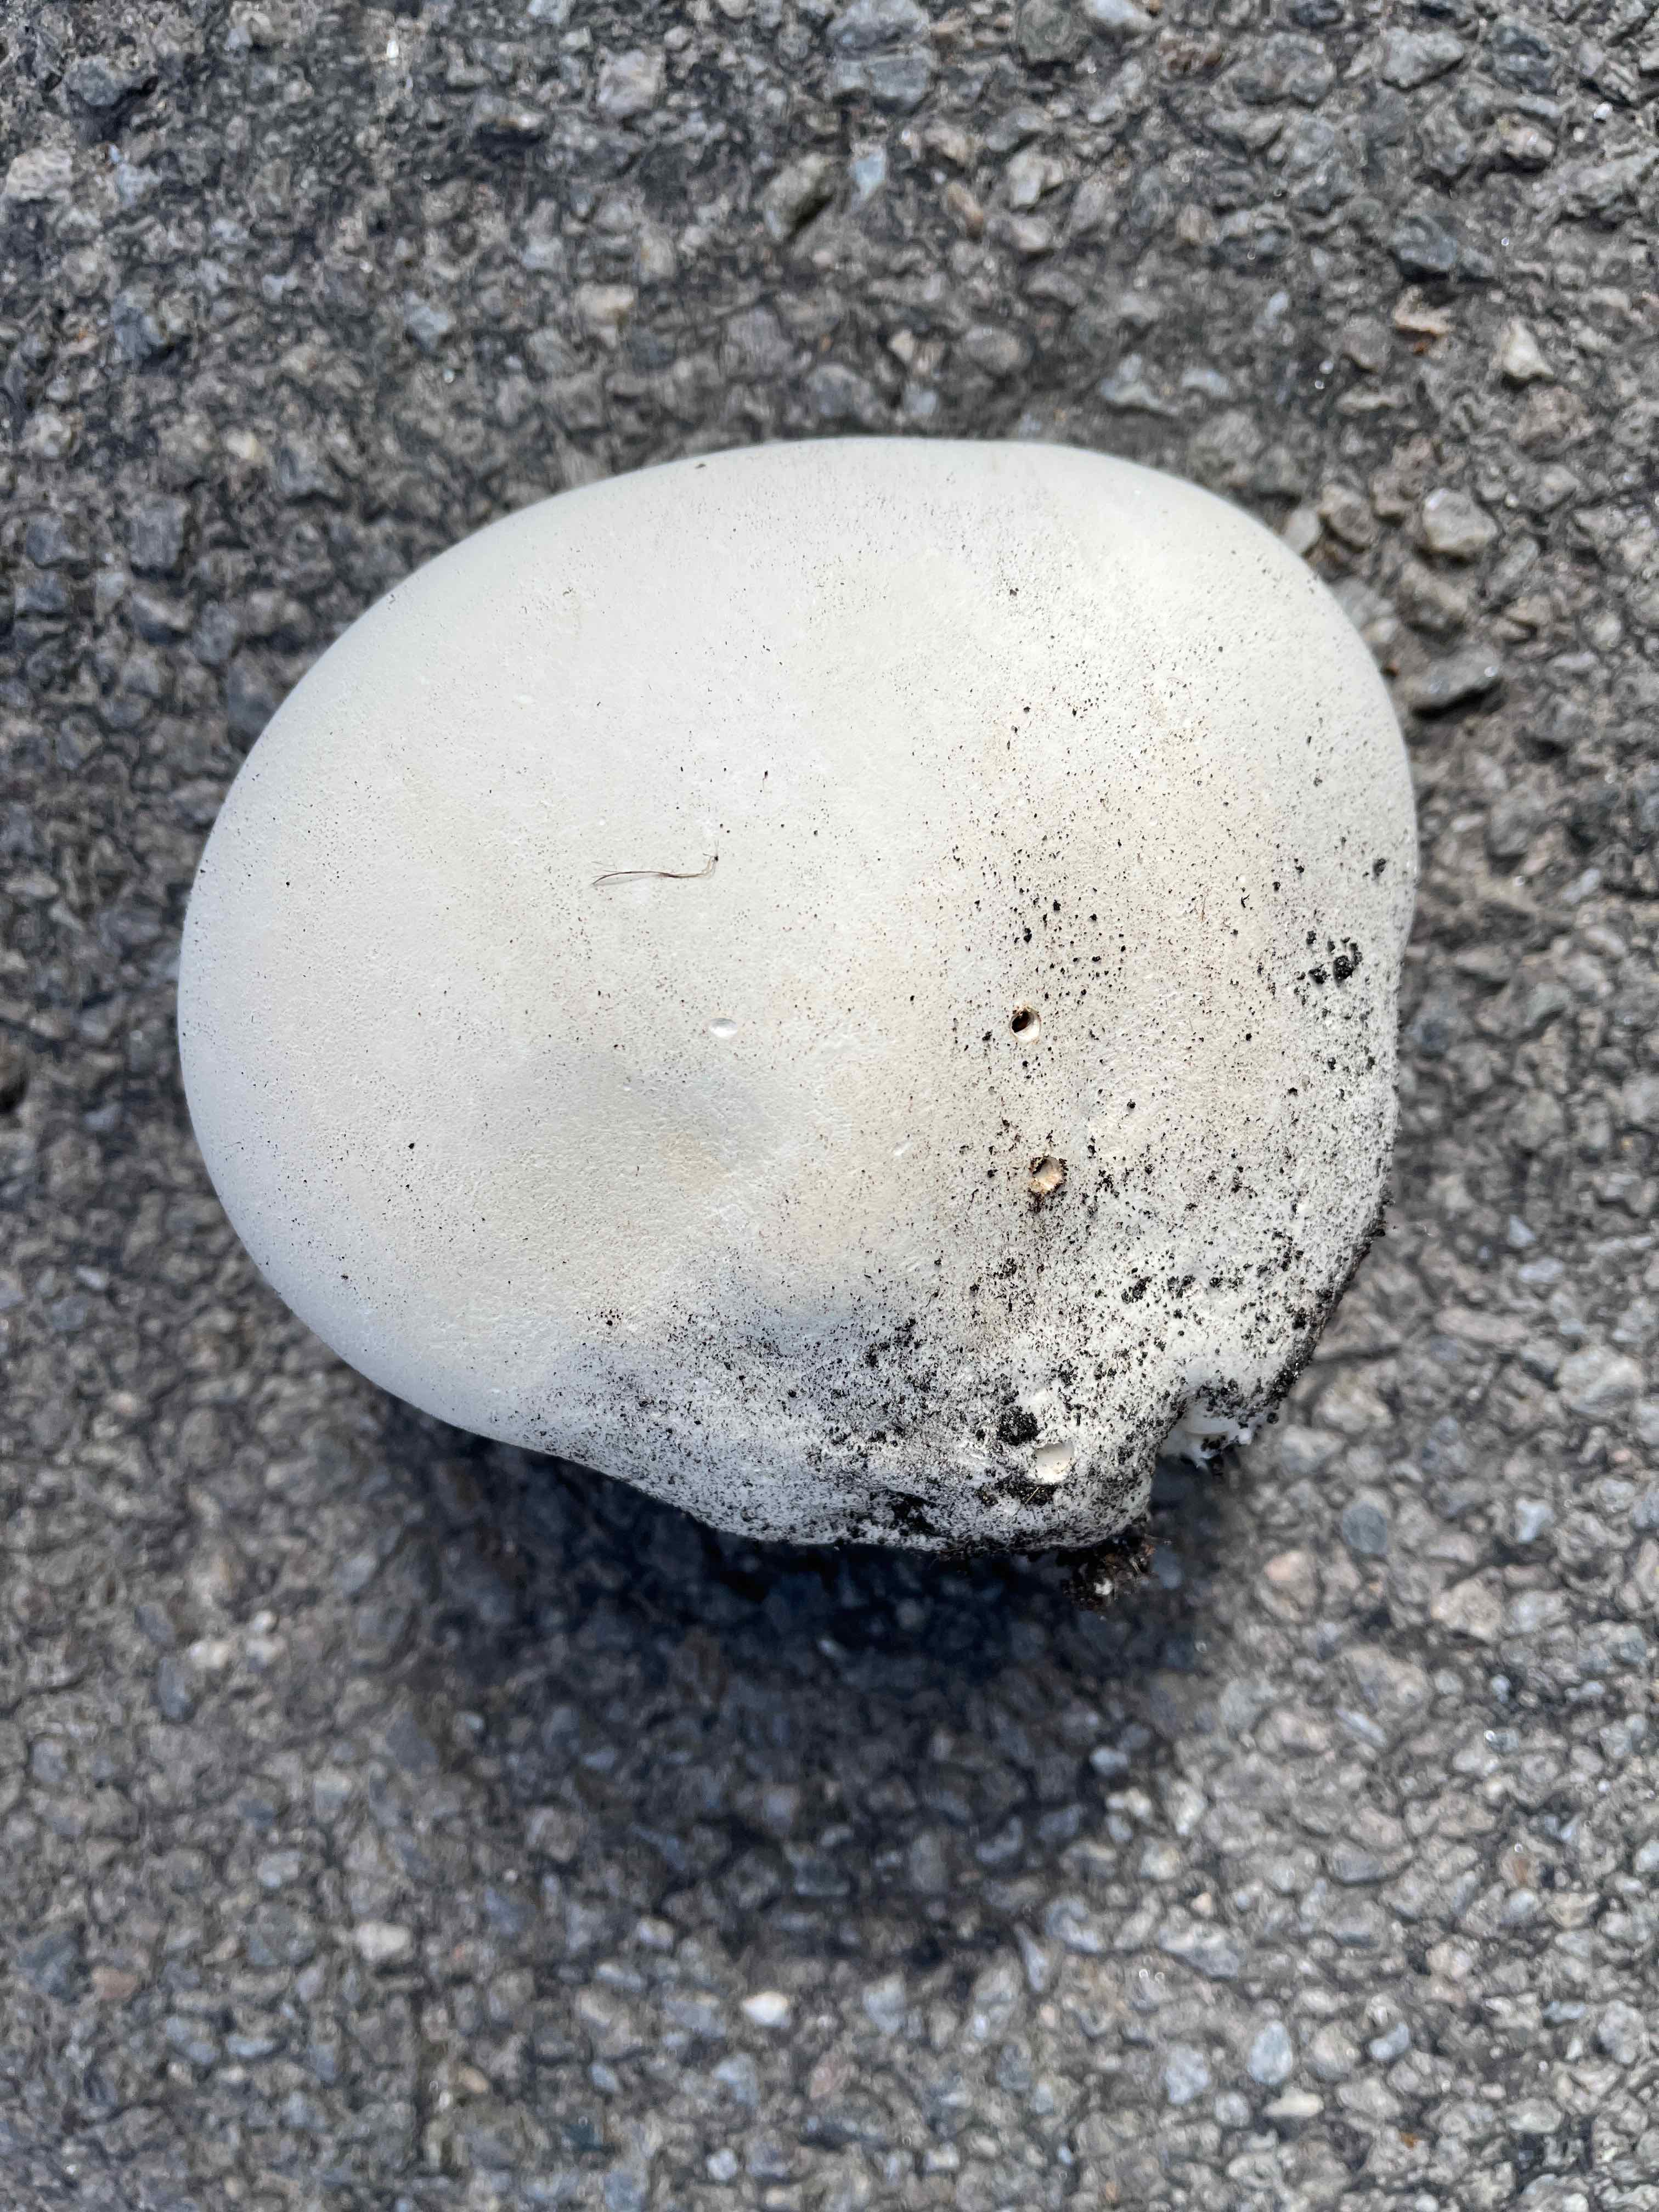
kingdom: Fungi
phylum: Basidiomycota
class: Agaricomycetes
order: Agaricales
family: Lycoperdaceae
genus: Calvatia
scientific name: Calvatia gigantea
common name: kæmpestøvbold
